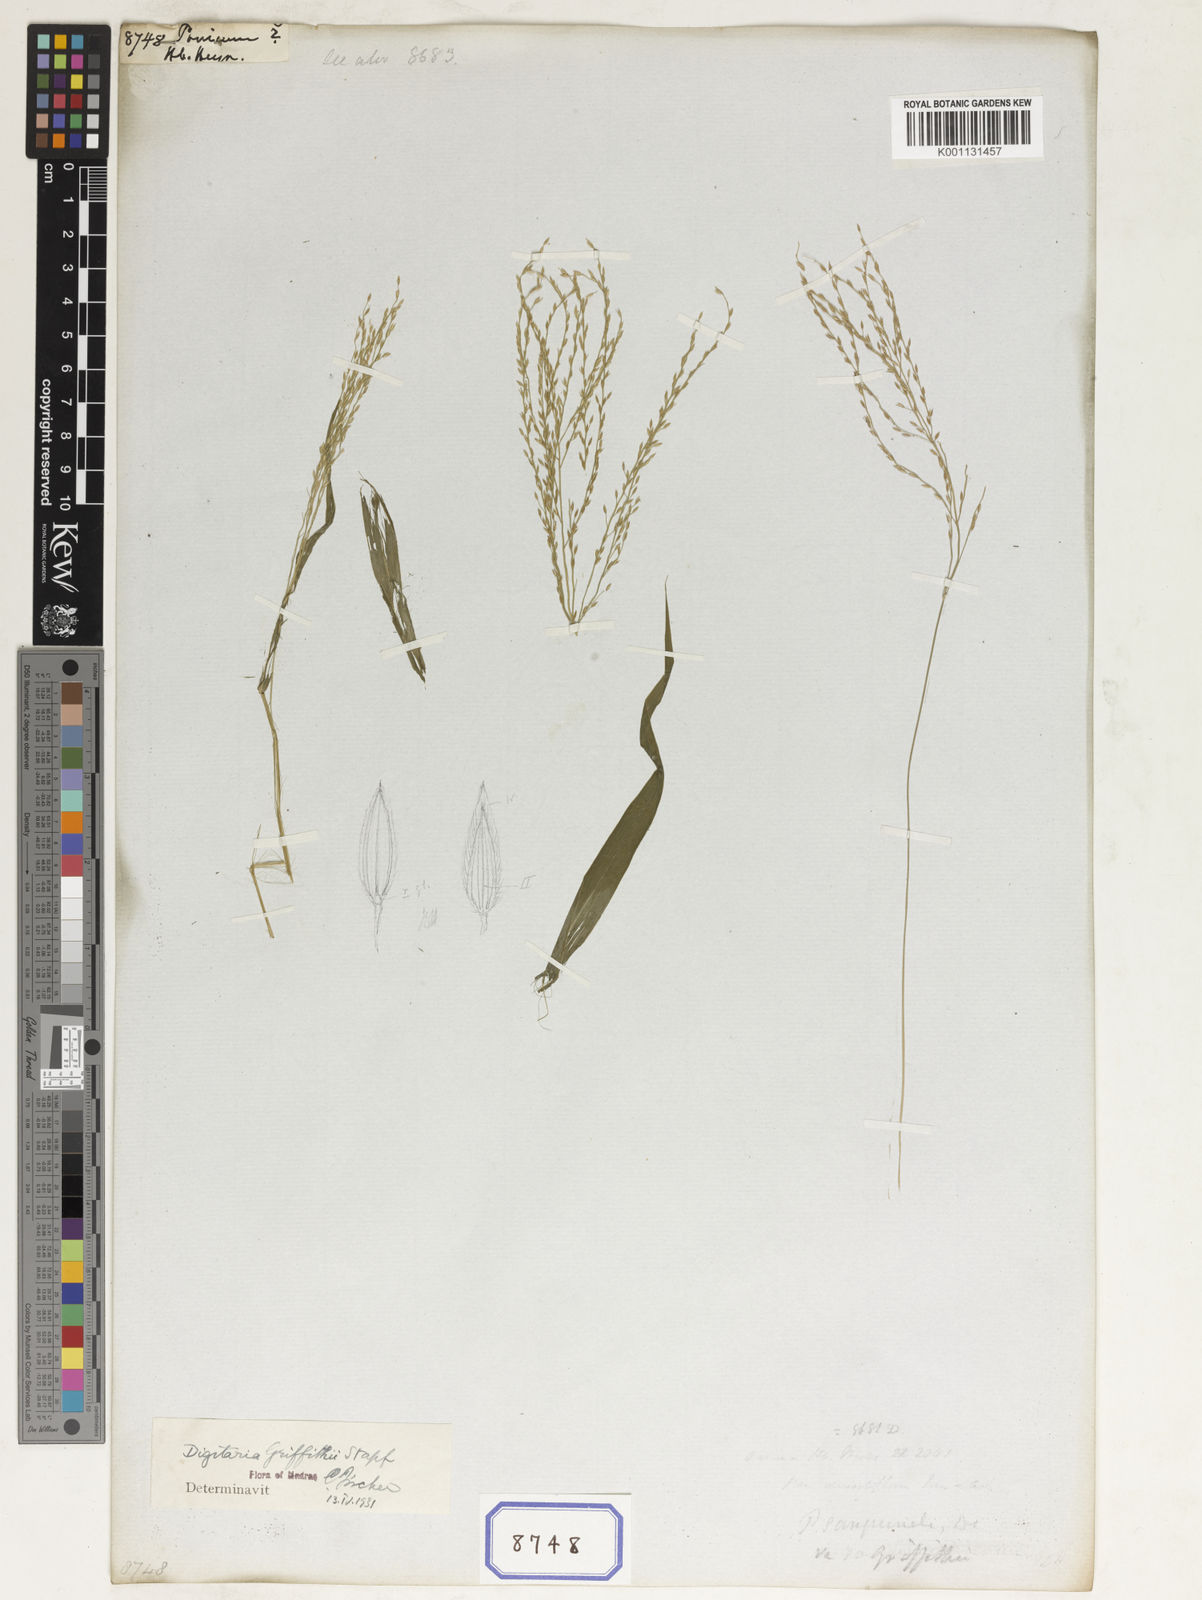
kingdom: Plantae
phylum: Tracheophyta
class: Liliopsida
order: Poales
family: Poaceae
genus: Panicum
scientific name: Panicum
